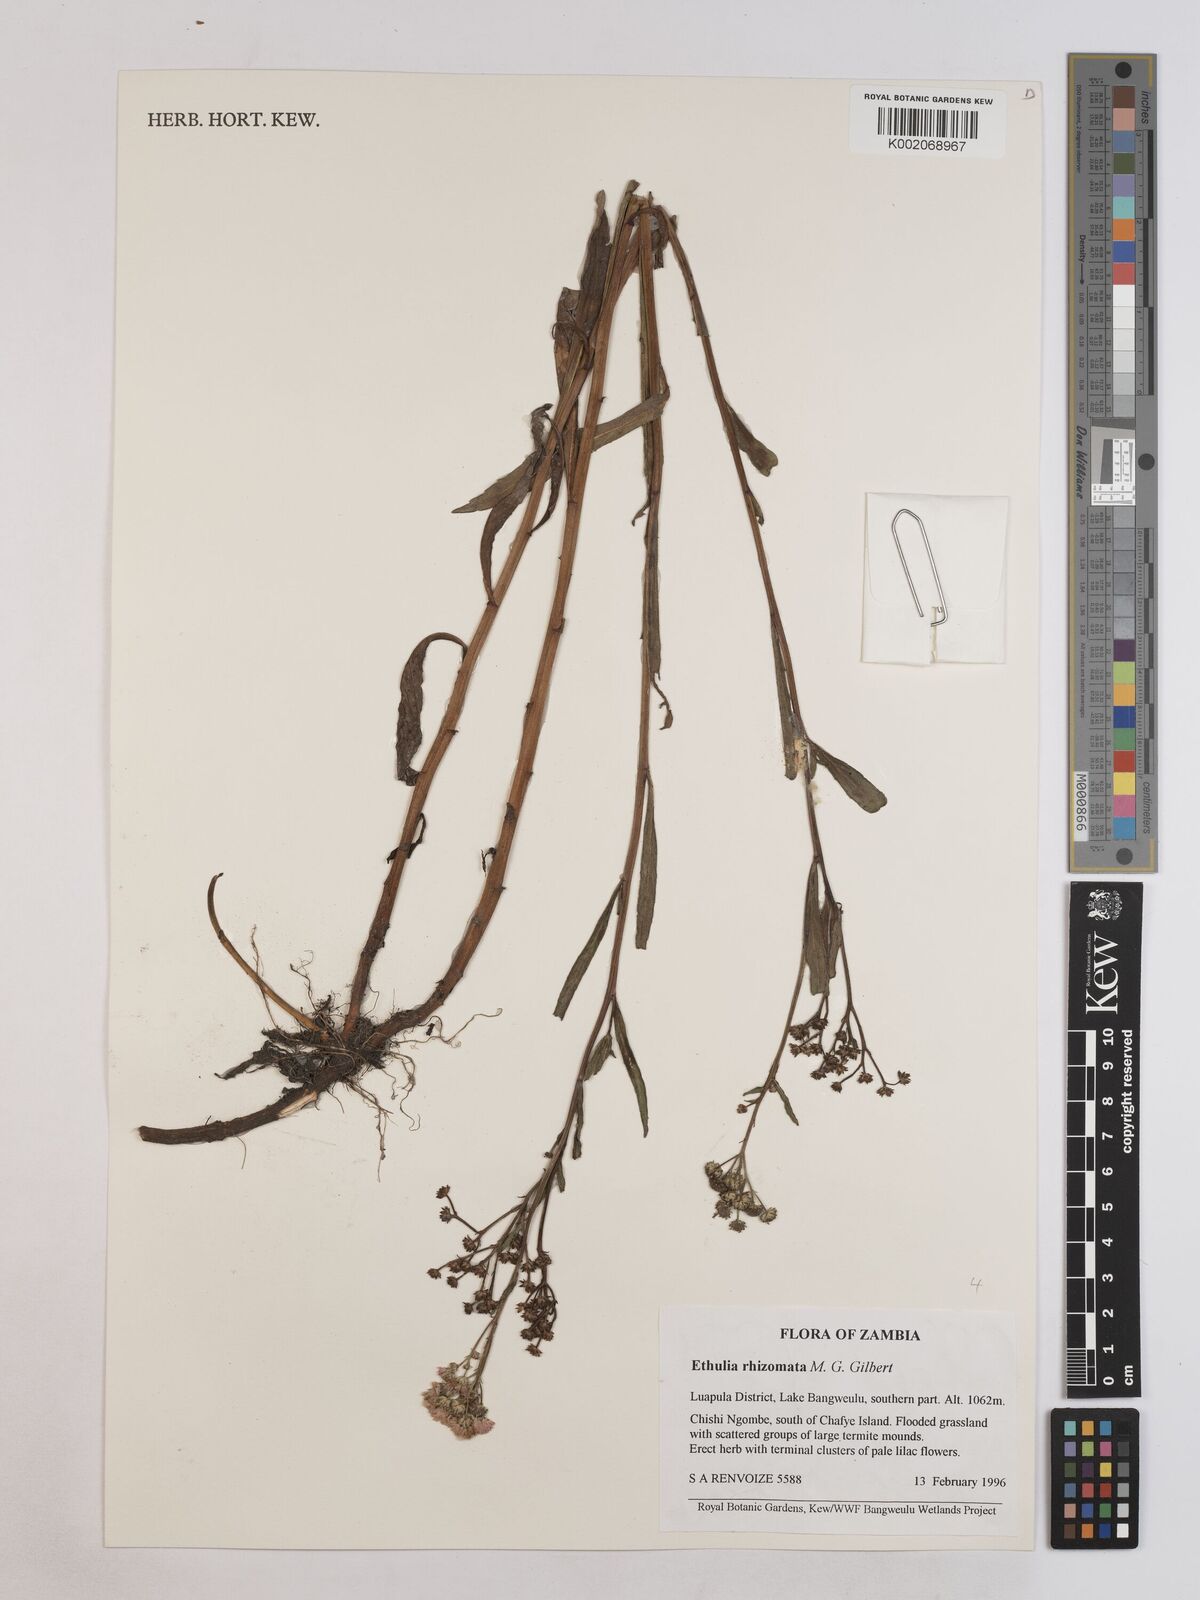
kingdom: Plantae
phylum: Tracheophyta
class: Magnoliopsida
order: Asterales
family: Asteraceae
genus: Ethulia
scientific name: Ethulia rhizomata
